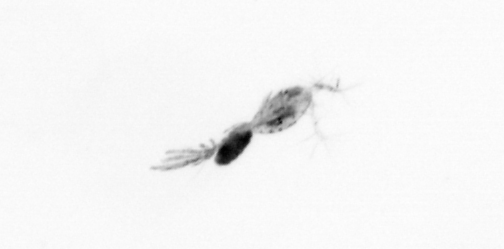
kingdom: Animalia
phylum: Arthropoda
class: Copepoda
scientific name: Copepoda
